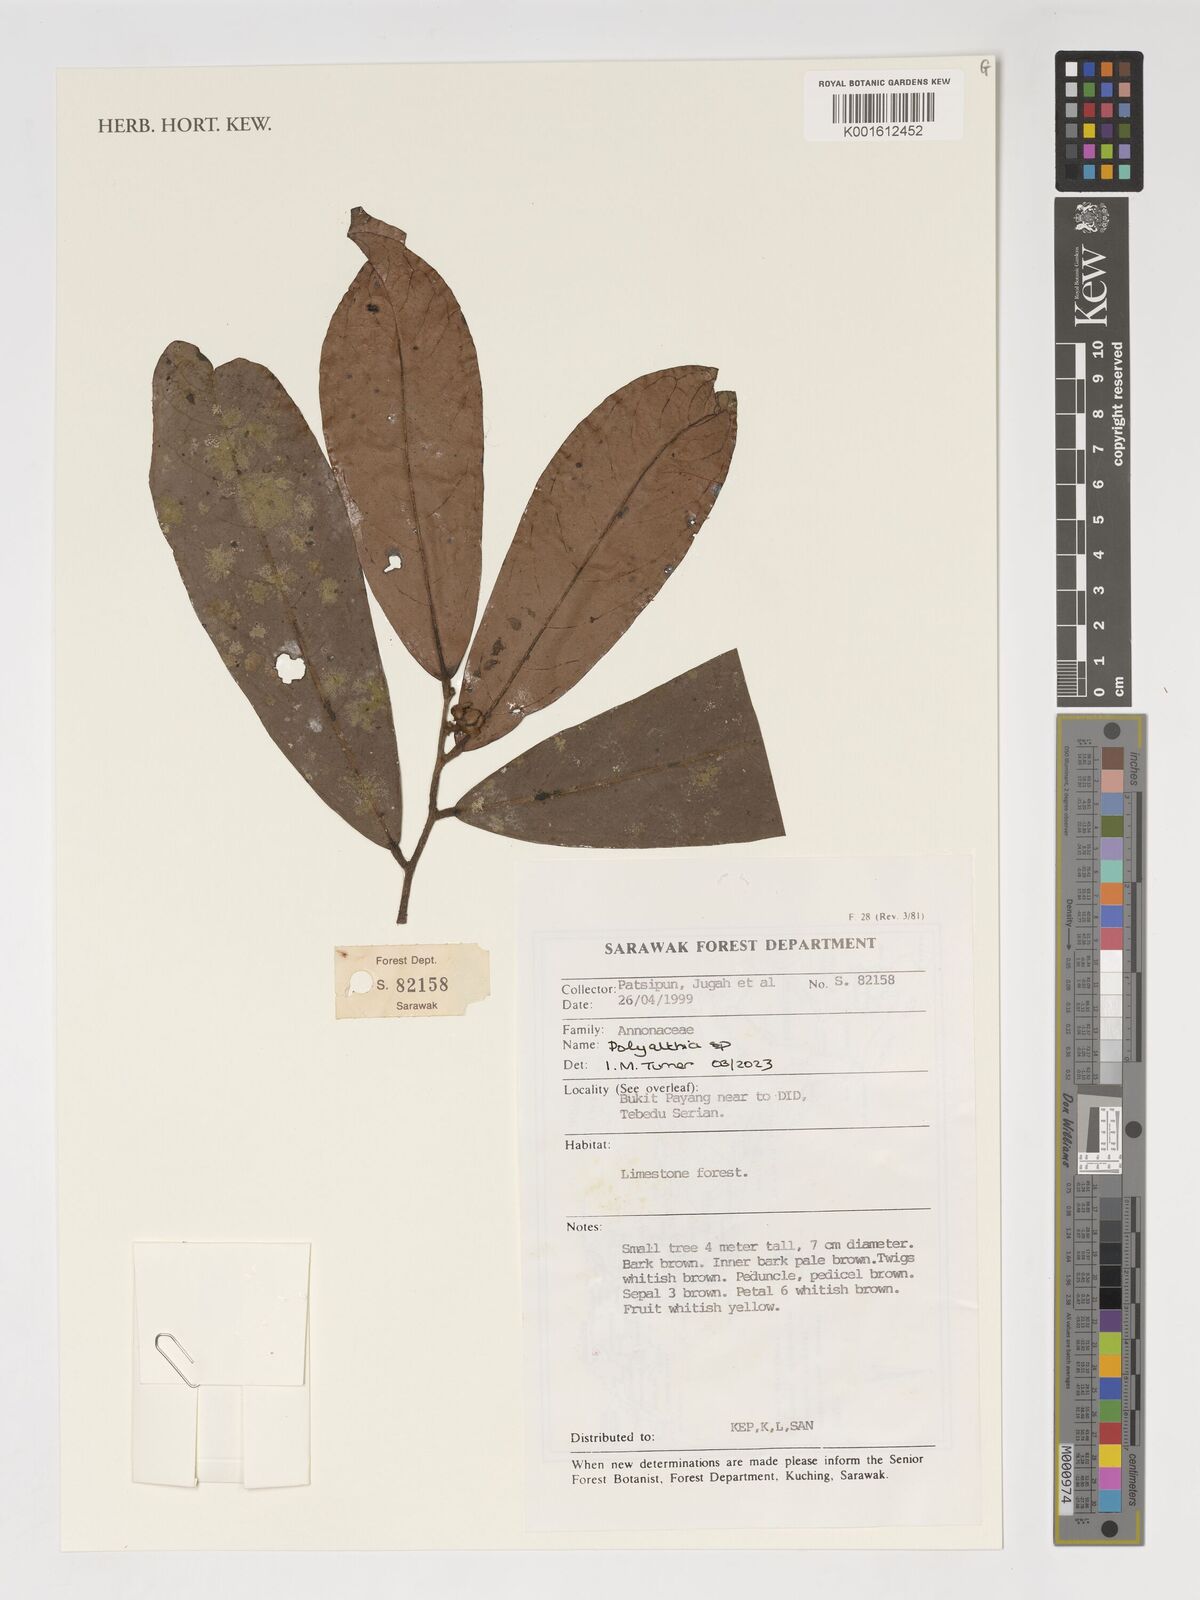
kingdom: Plantae
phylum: Tracheophyta
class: Magnoliopsida
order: Magnoliales
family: Annonaceae
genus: Polyalthia
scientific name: Polyalthia
